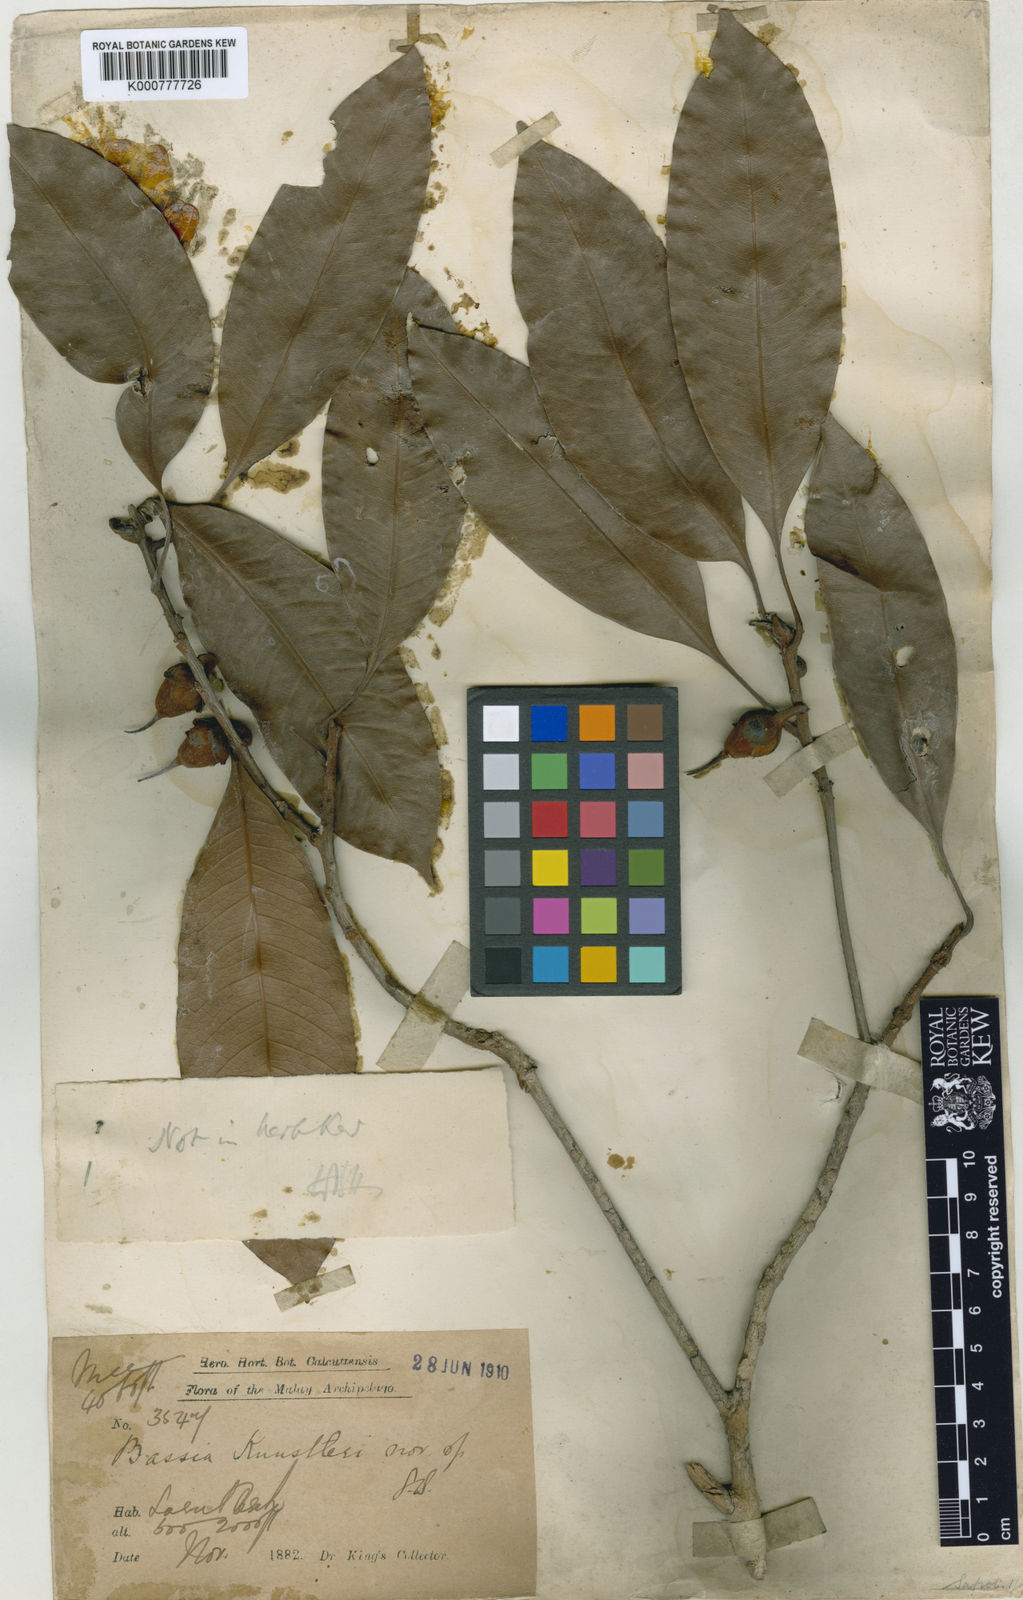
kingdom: Plantae
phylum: Tracheophyta
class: Magnoliopsida
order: Ericales
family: Sapotaceae
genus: Madhuca
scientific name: Madhuca kunstleri
